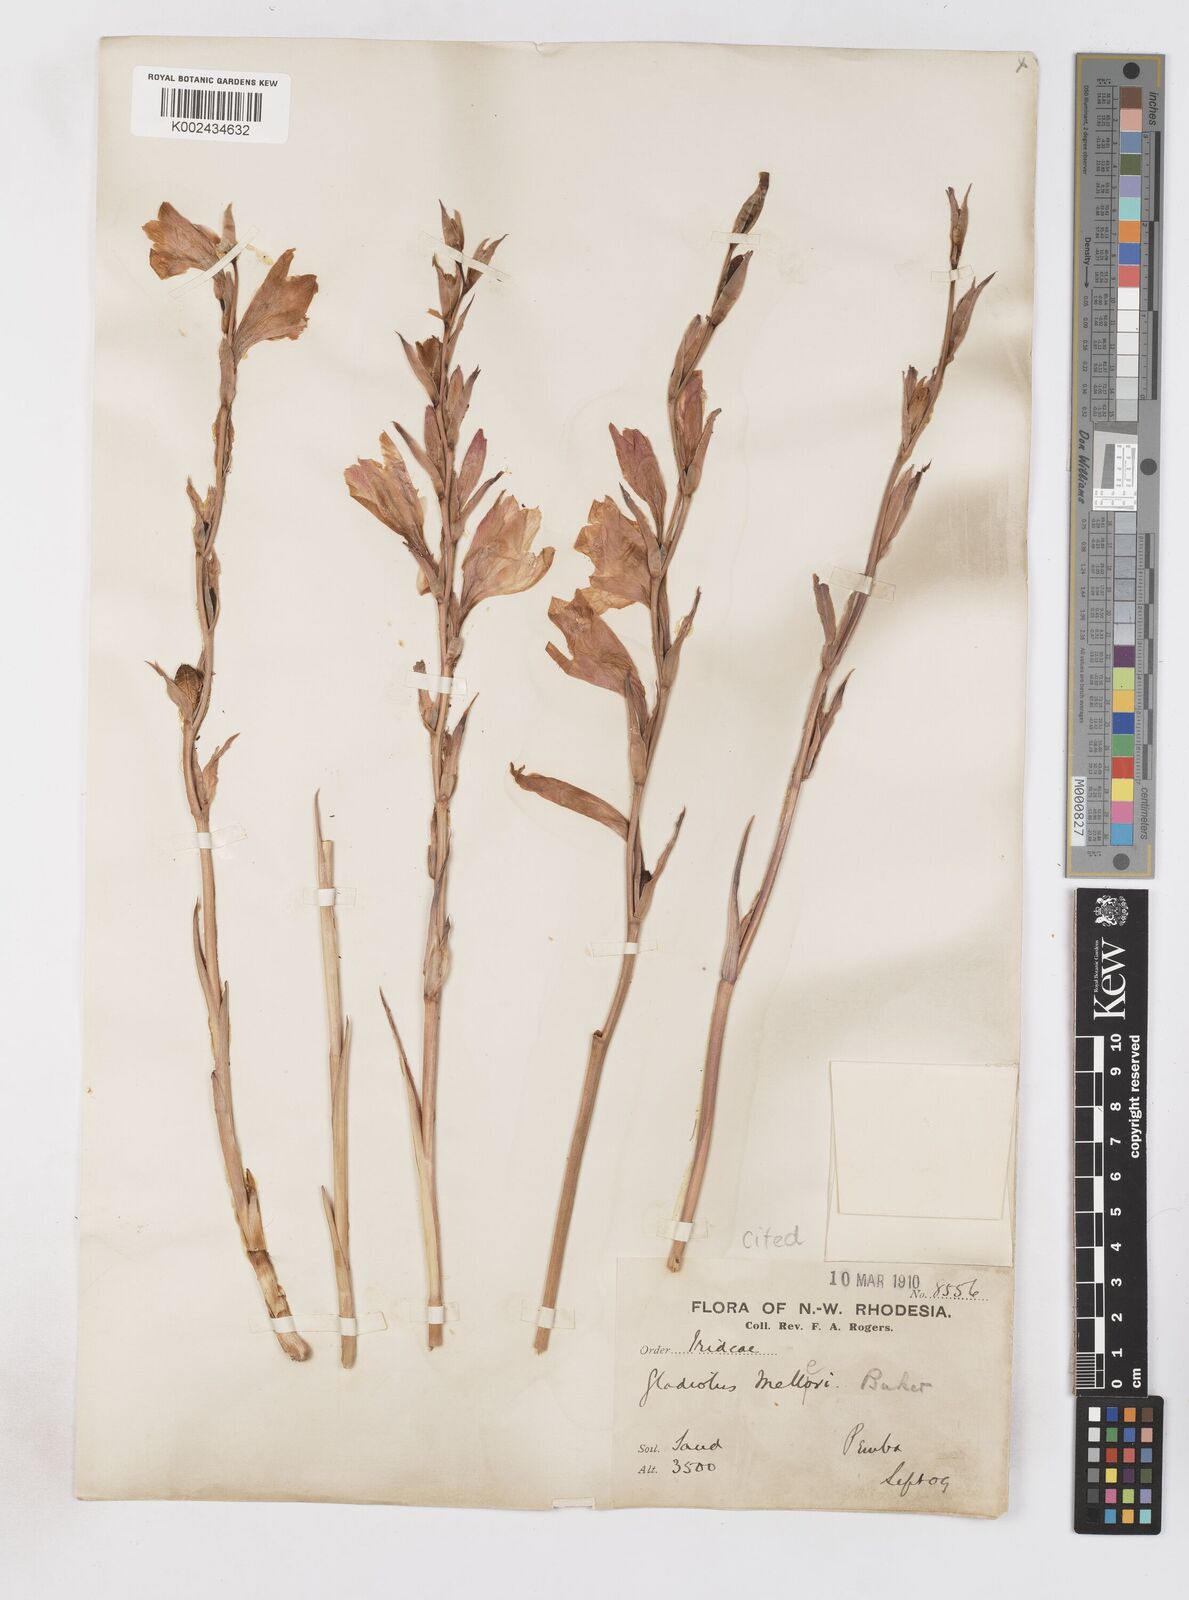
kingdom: Plantae
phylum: Tracheophyta
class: Liliopsida
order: Asparagales
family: Iridaceae
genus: Gladiolus
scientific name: Gladiolus melleri
